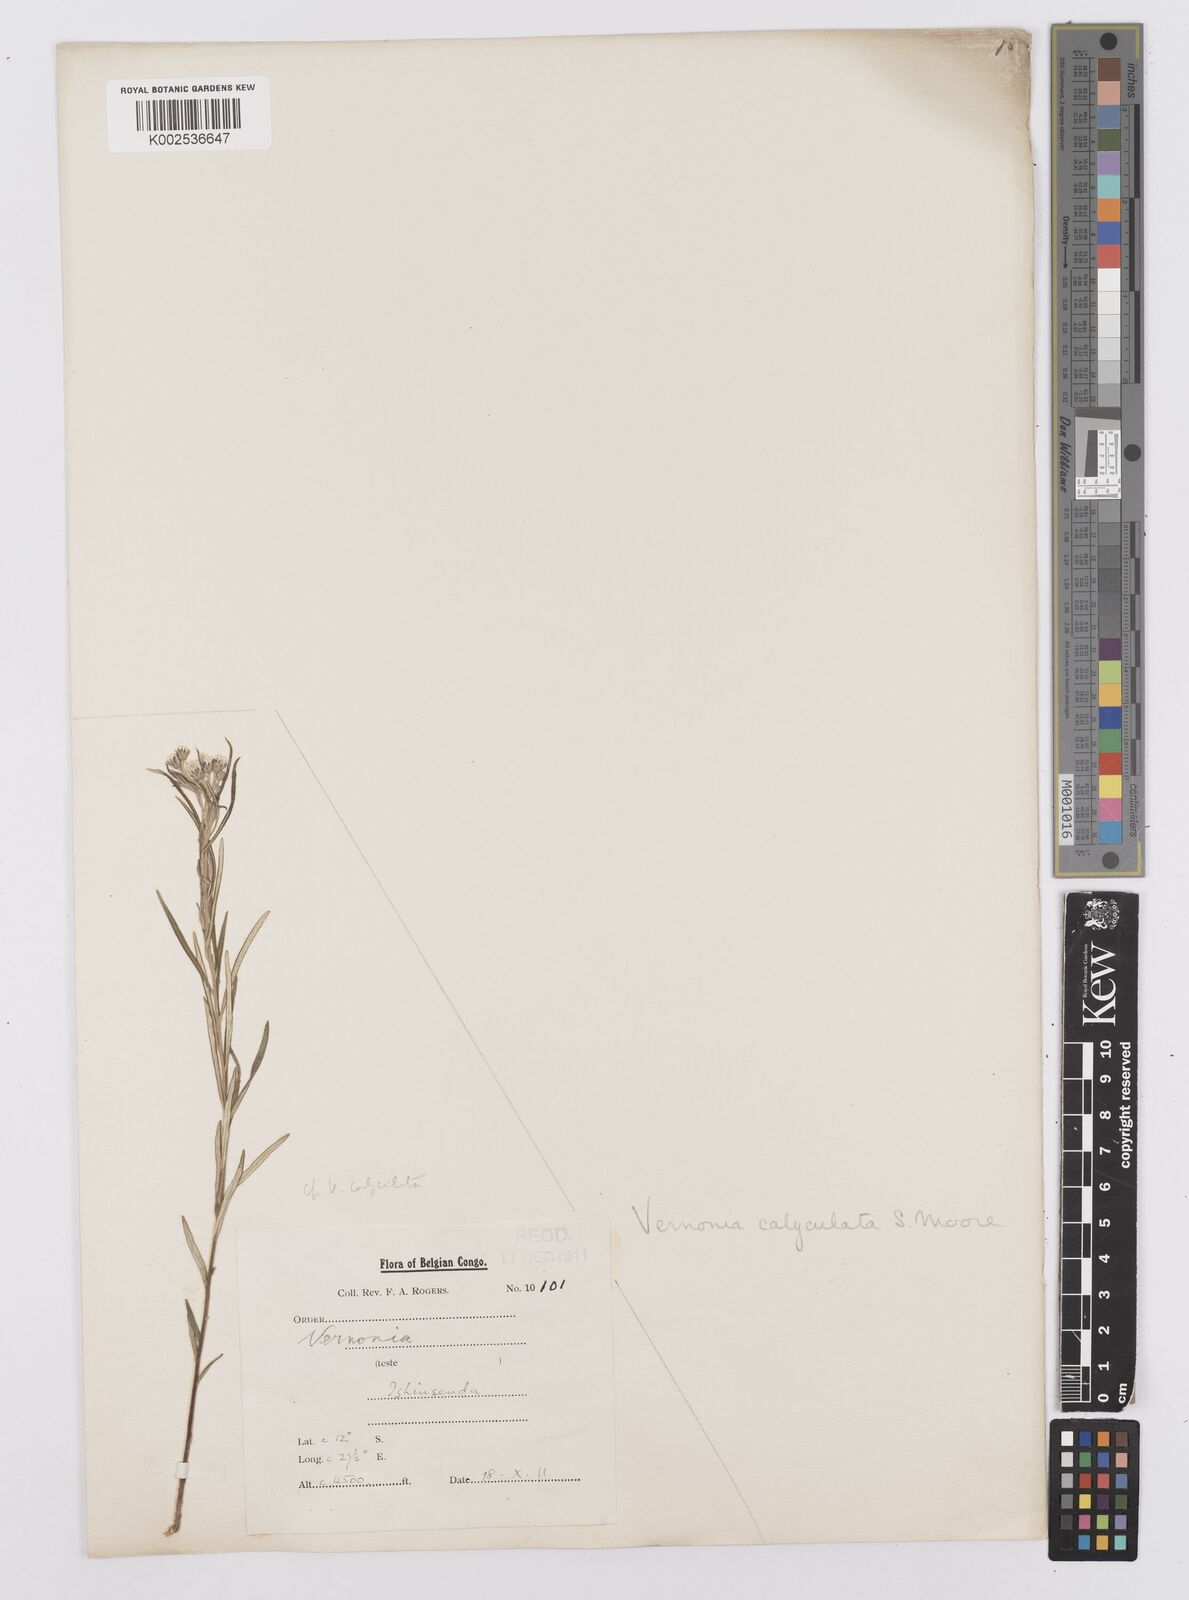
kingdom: Plantae
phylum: Tracheophyta
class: Magnoliopsida
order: Asterales
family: Asteraceae
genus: Hilliardiella
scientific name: Hilliardiella calyculata
